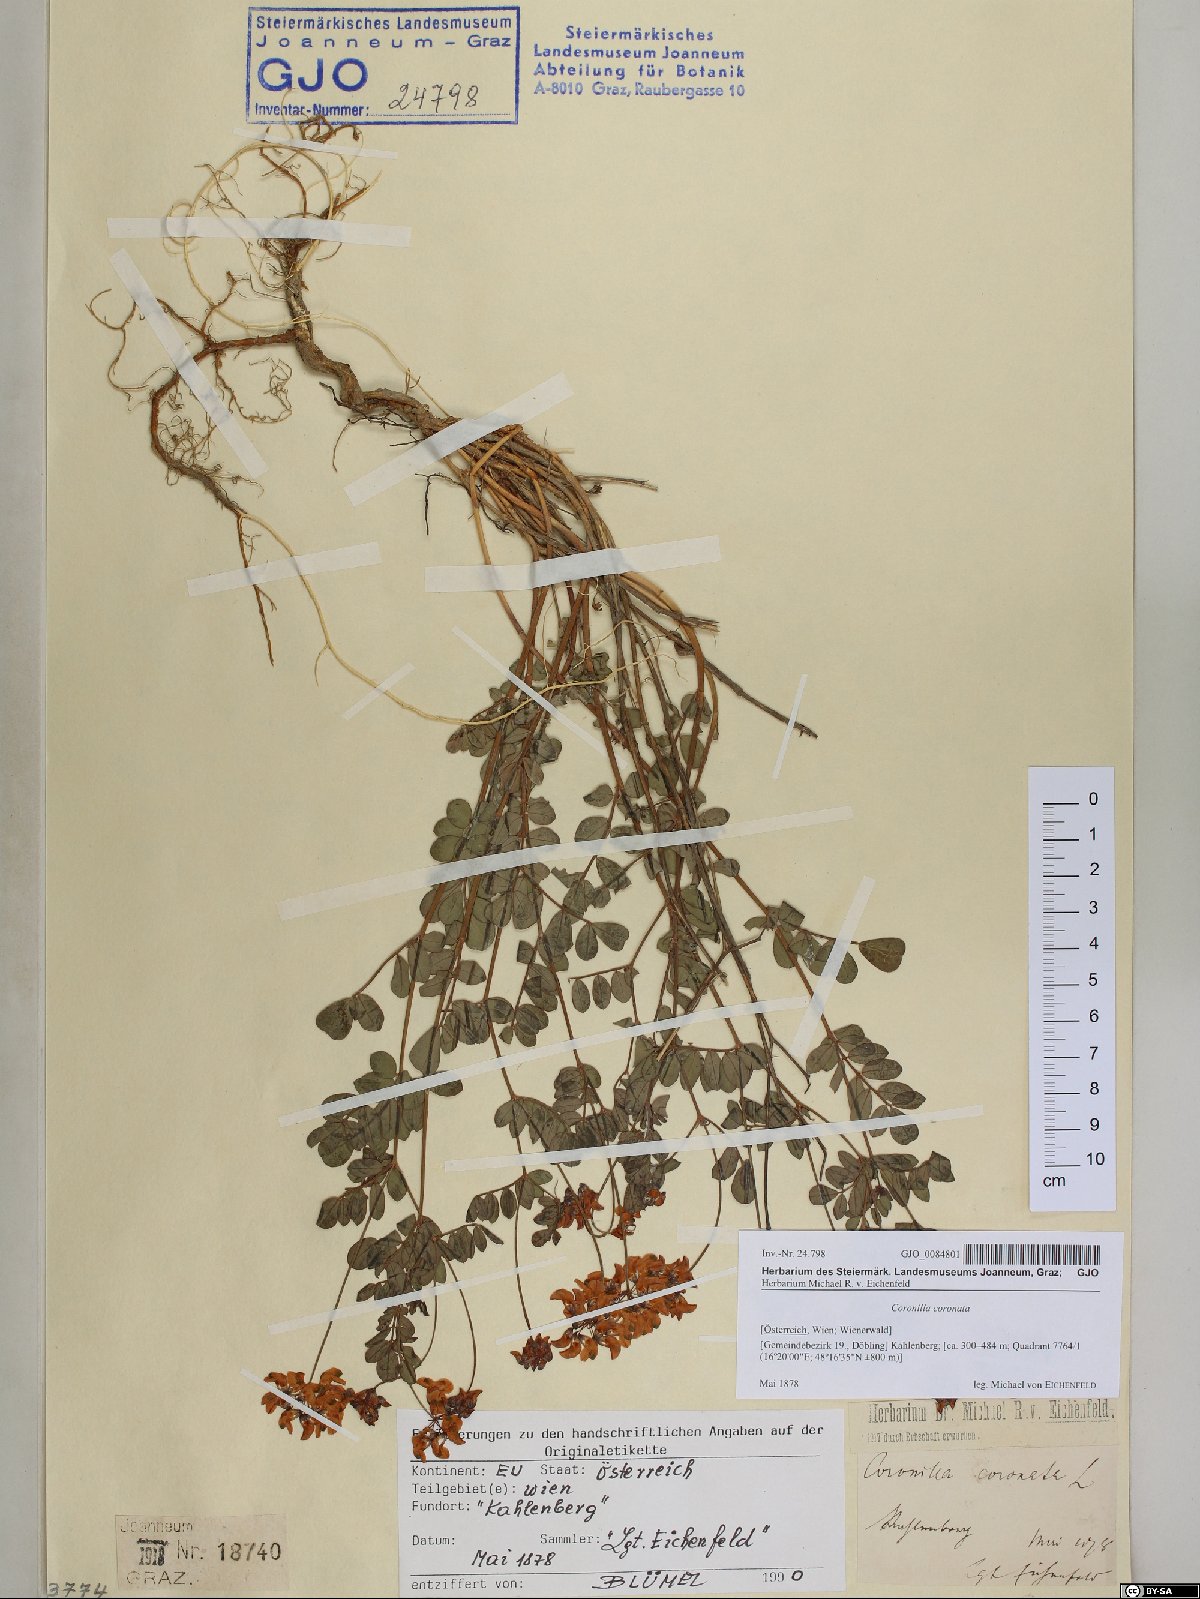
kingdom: Plantae
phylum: Tracheophyta
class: Magnoliopsida
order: Fabales
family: Fabaceae
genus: Coronilla
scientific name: Coronilla coronata
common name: Scorpion-vetch
